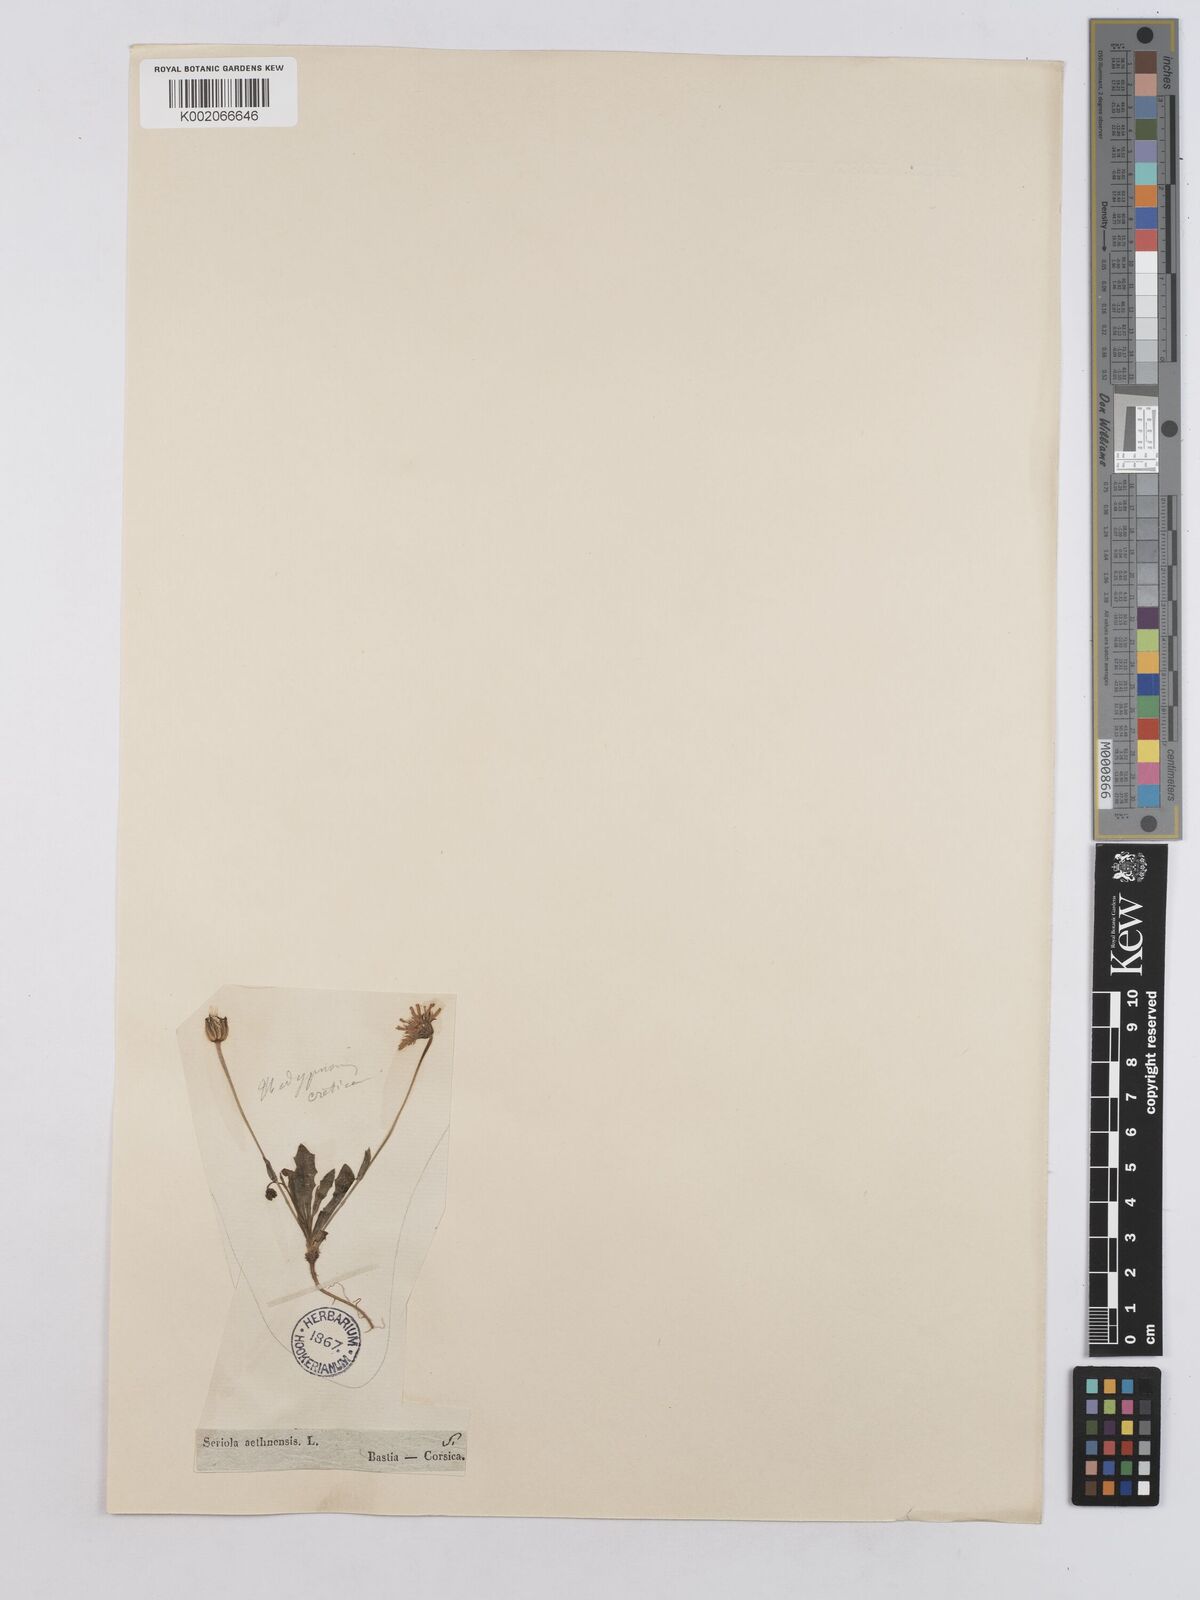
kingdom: Plantae
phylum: Tracheophyta
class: Magnoliopsida
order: Asterales
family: Asteraceae
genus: Hedypnois
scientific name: Hedypnois rhagadioloides
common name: Cretan weed
